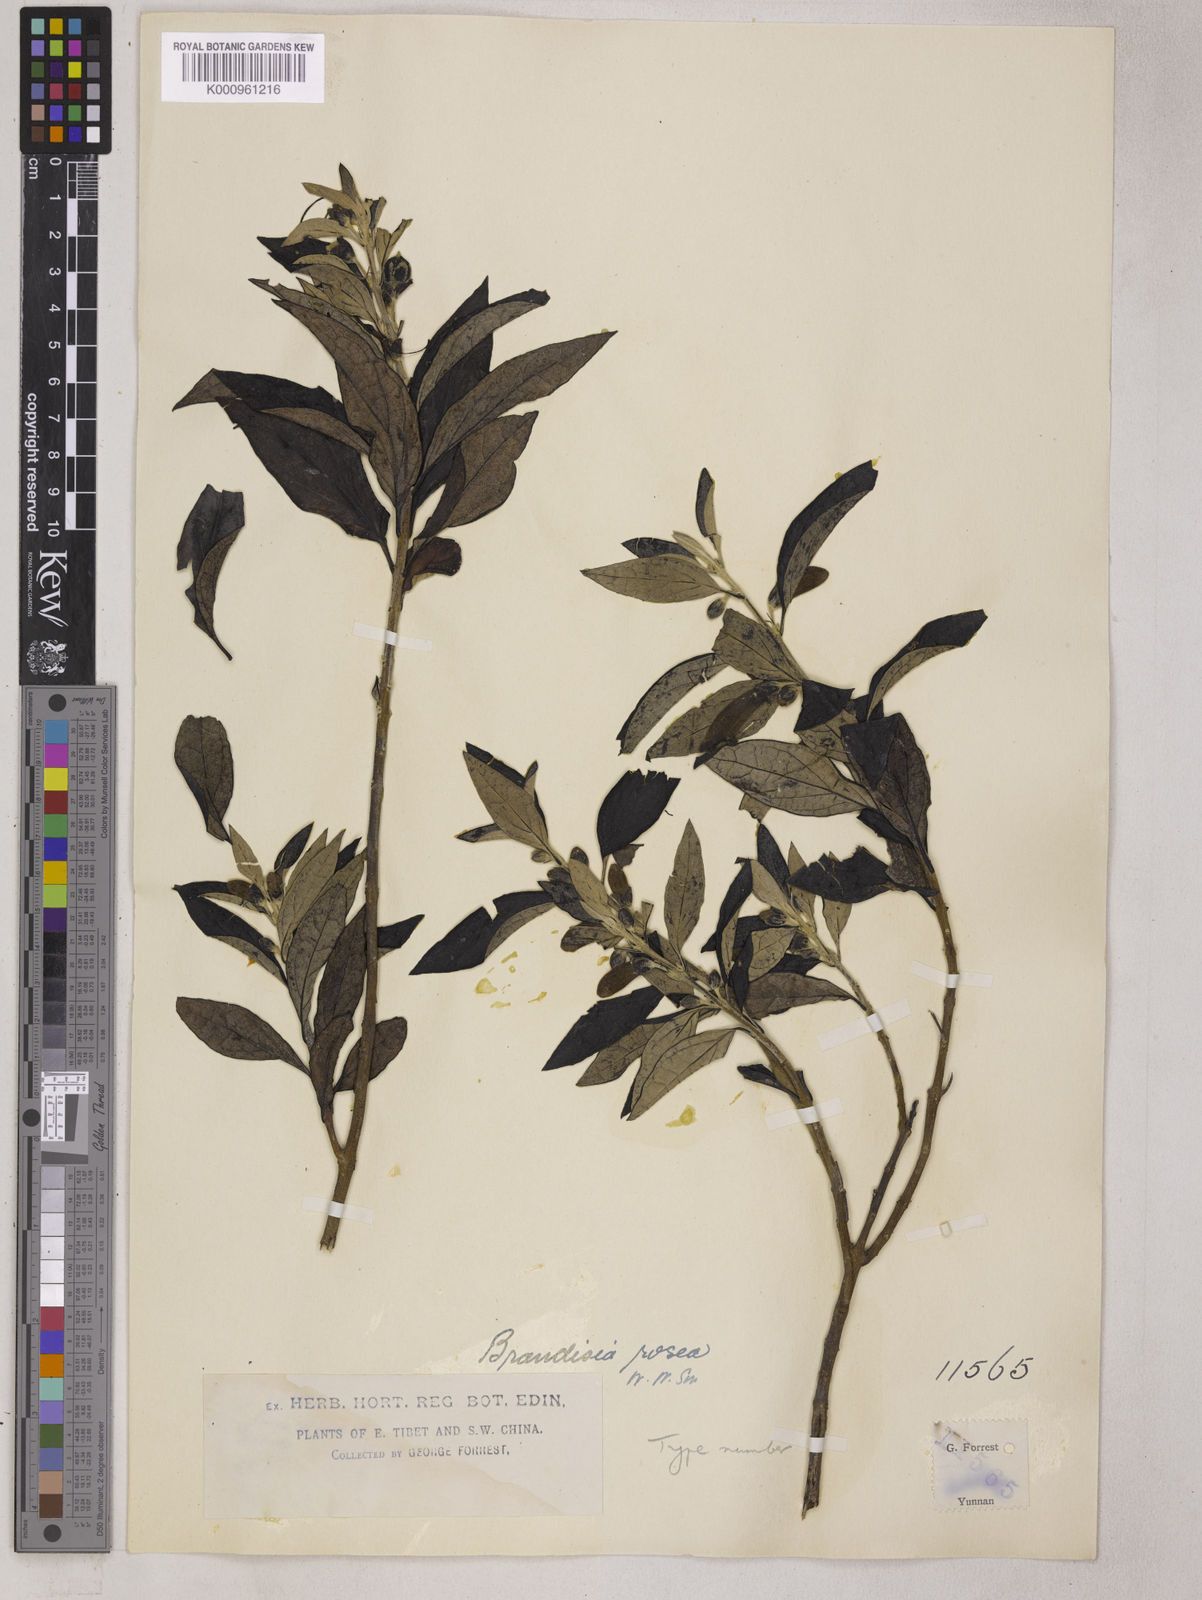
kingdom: Plantae
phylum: Tracheophyta
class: Magnoliopsida
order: Lamiales
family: Orobanchaceae
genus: Brandisia
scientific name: Brandisia rosea
